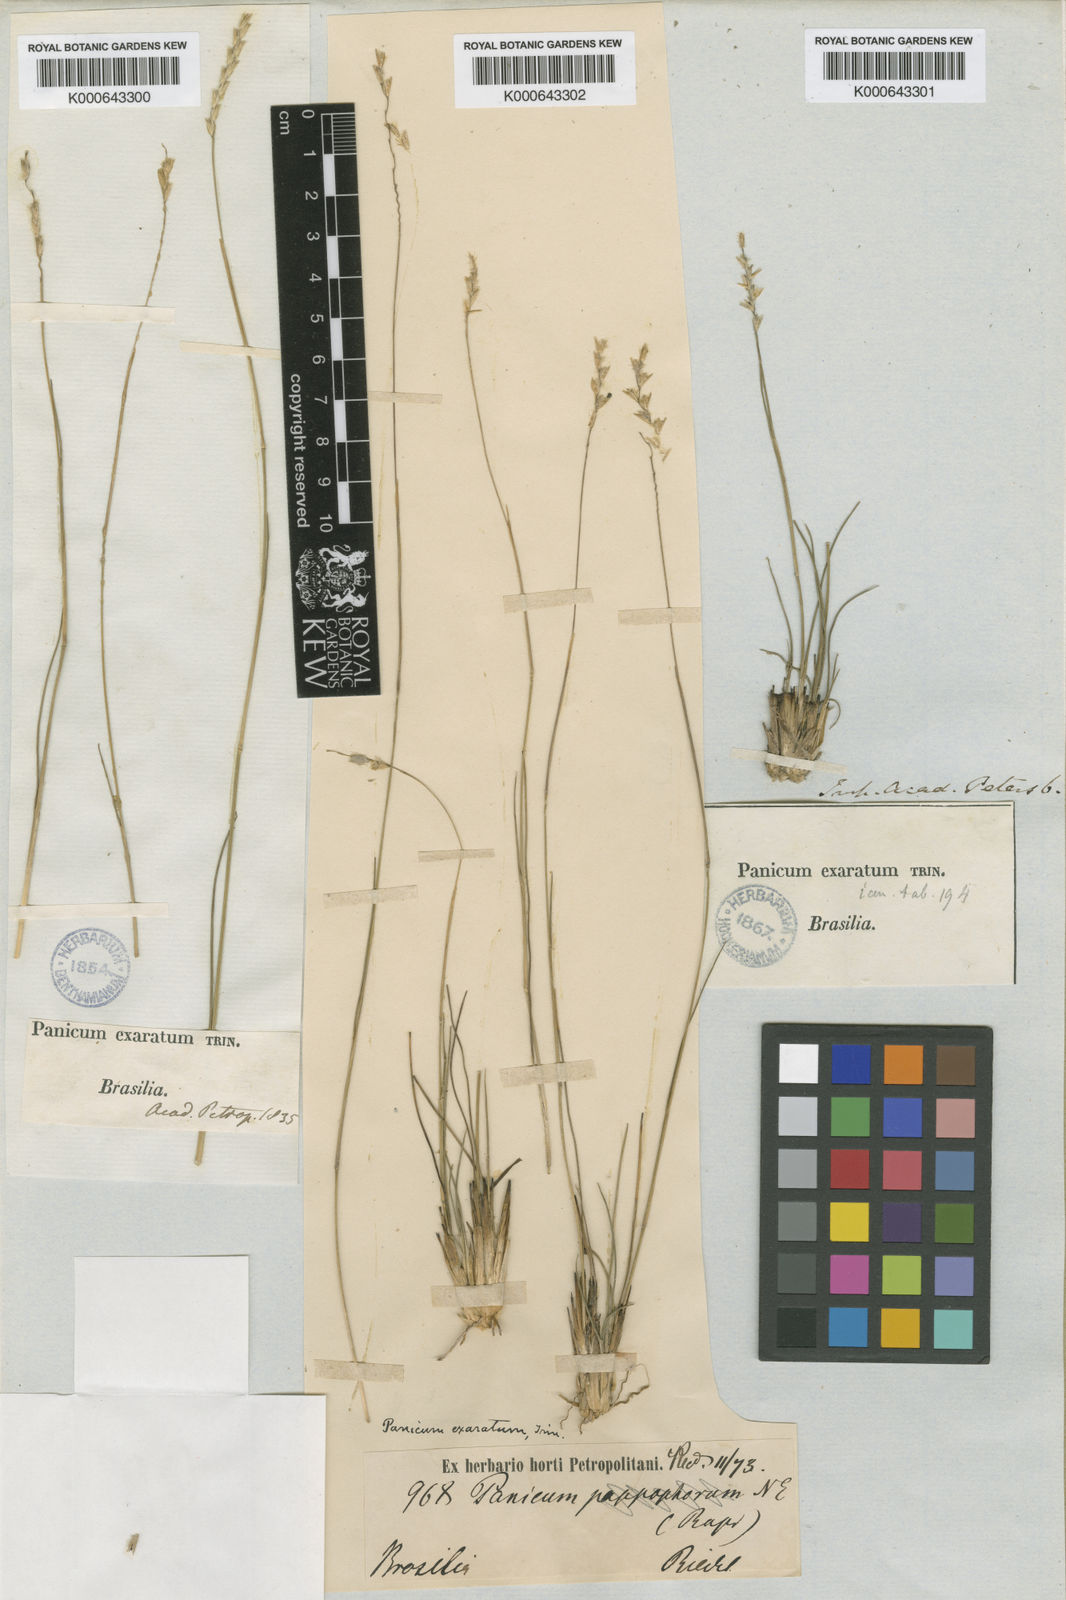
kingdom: Plantae
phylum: Tracheophyta
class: Liliopsida
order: Poales
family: Poaceae
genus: Mesosetum
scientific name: Mesosetum exaratum
